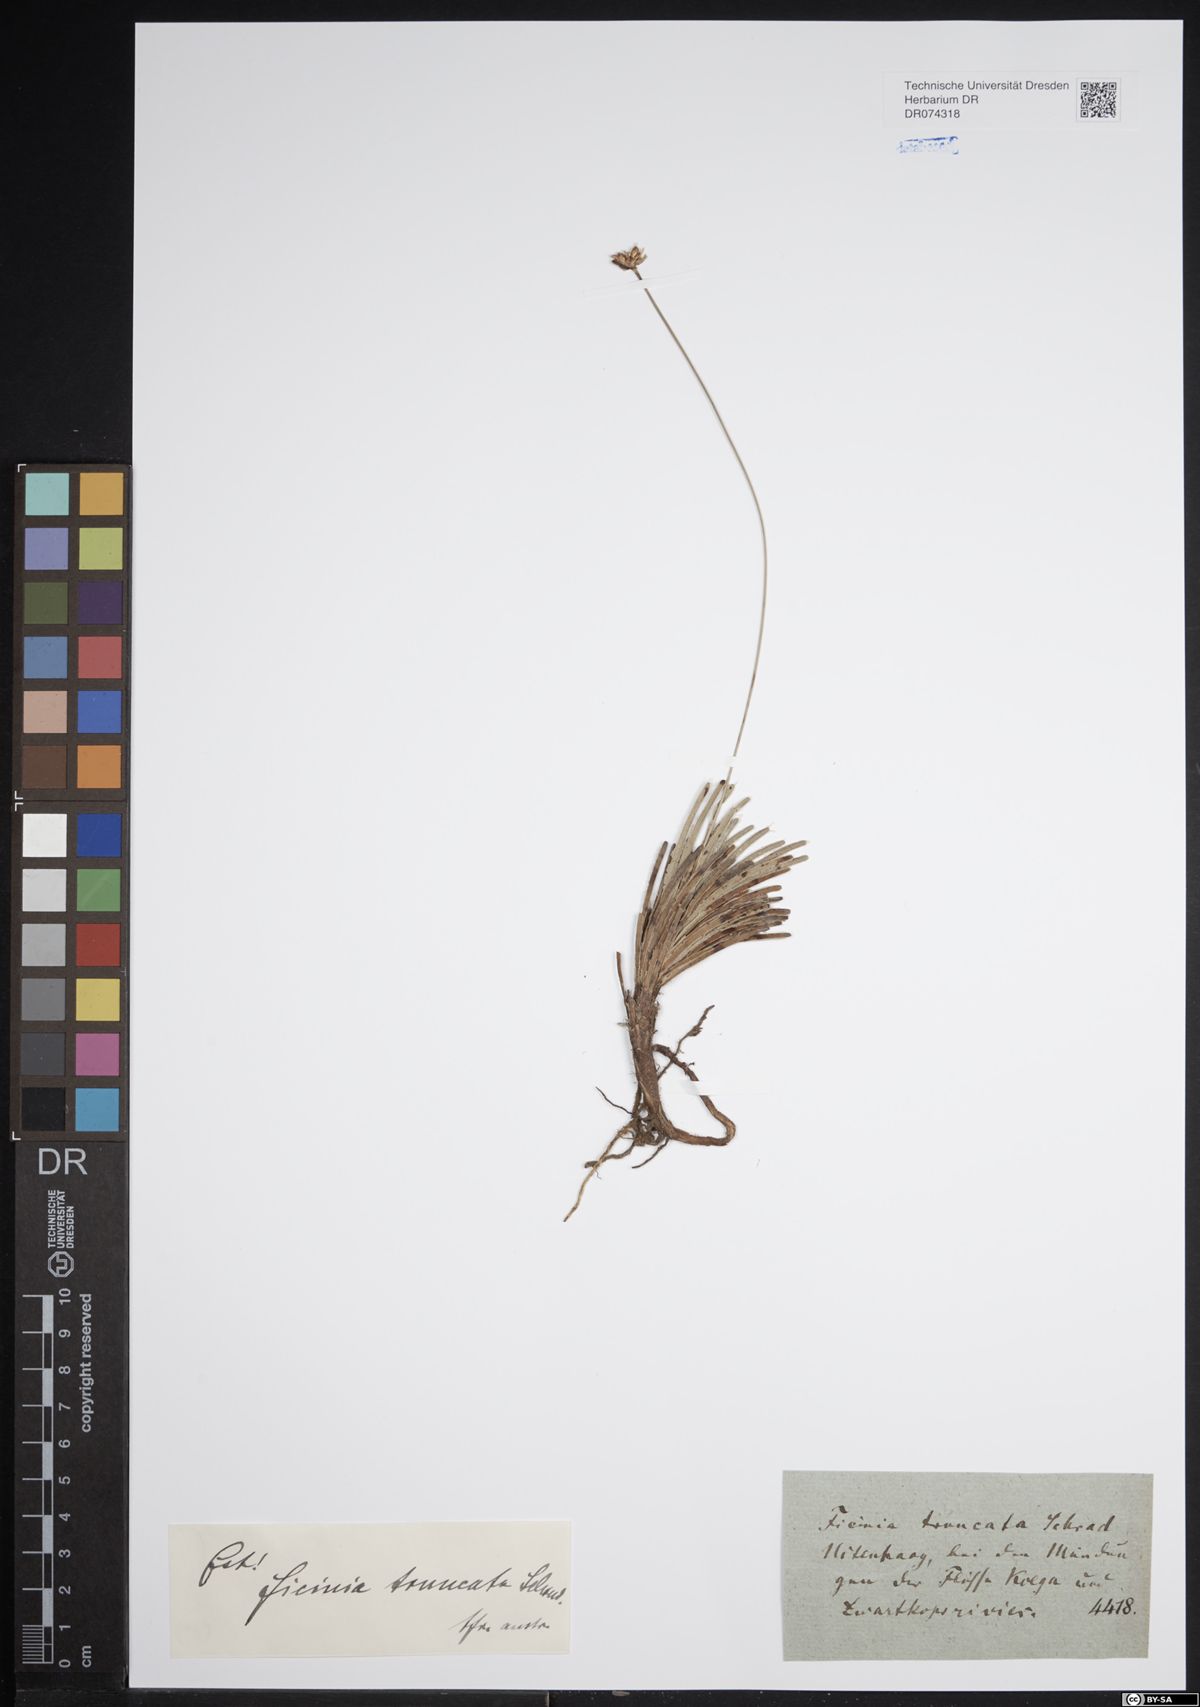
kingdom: Plantae
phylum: Tracheophyta
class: Liliopsida
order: Poales
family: Cyperaceae
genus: Ficinia
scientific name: Ficinia truncata
